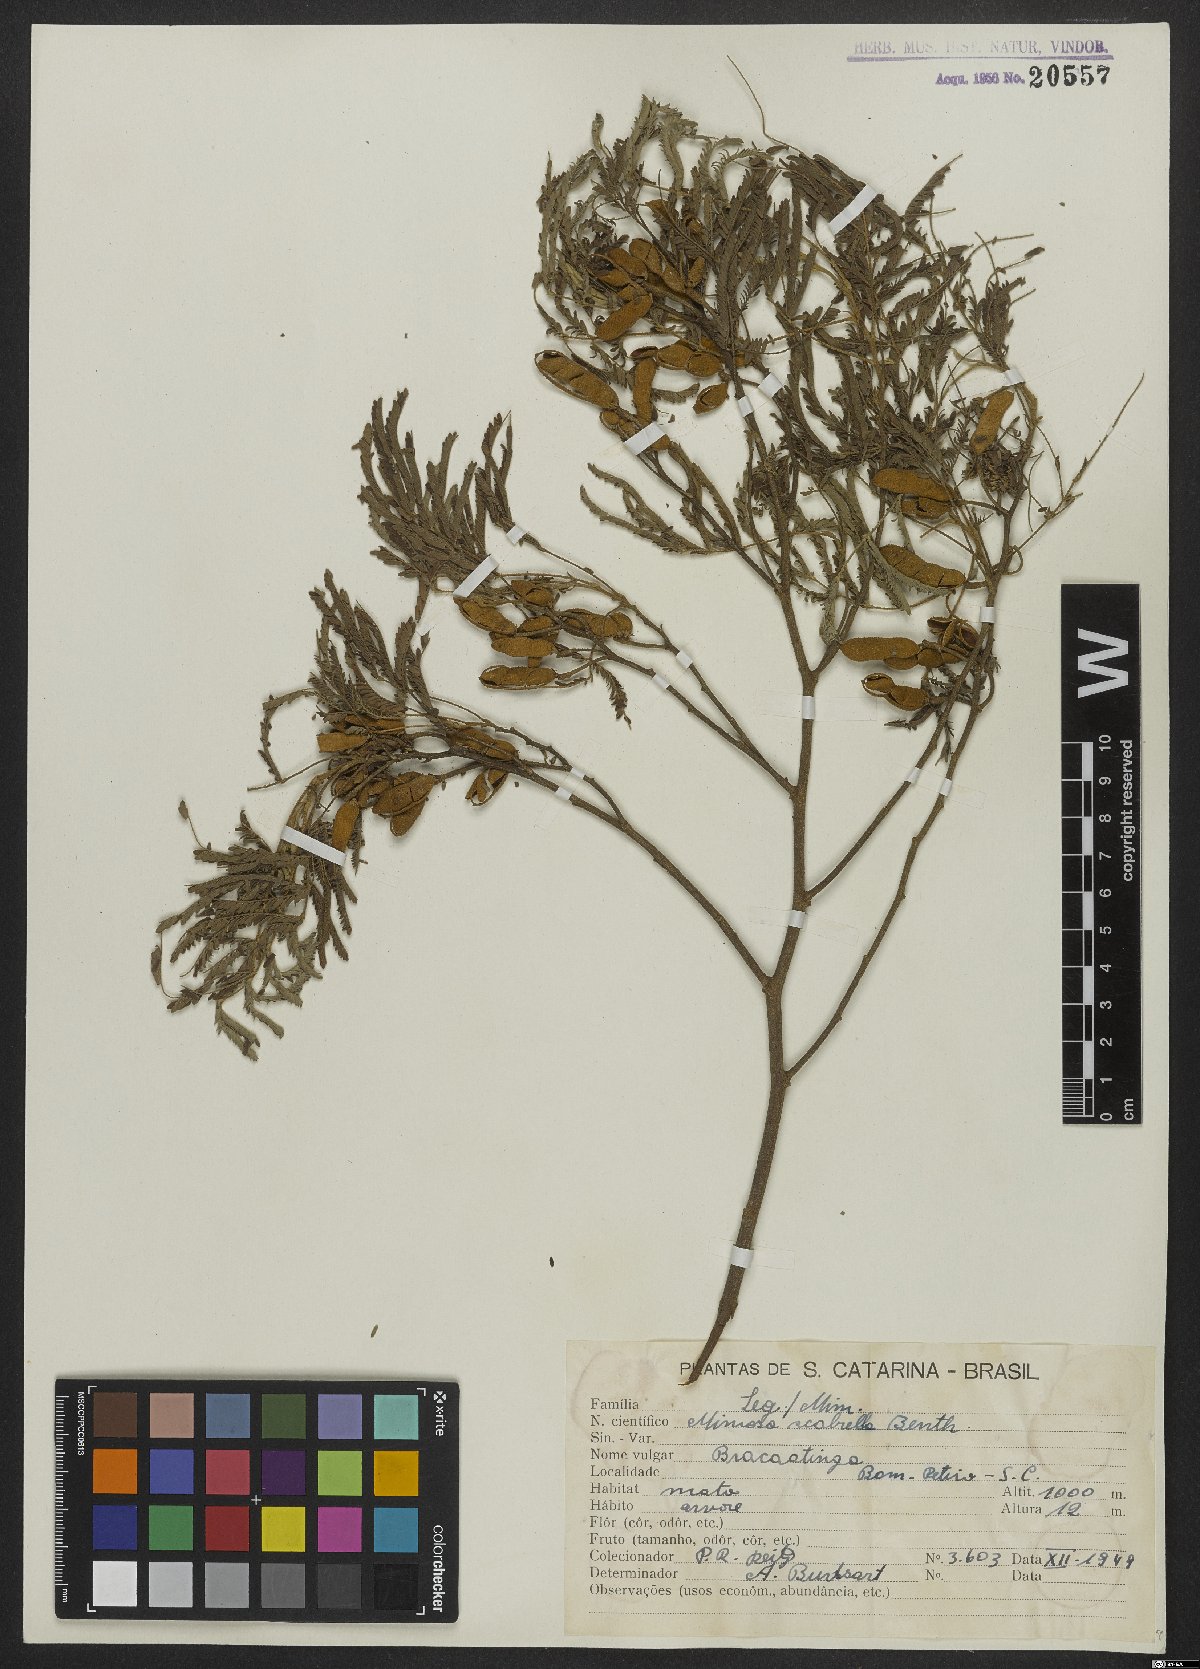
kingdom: Plantae
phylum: Tracheophyta
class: Magnoliopsida
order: Fabales
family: Fabaceae
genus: Mimosa
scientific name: Mimosa scabrella
